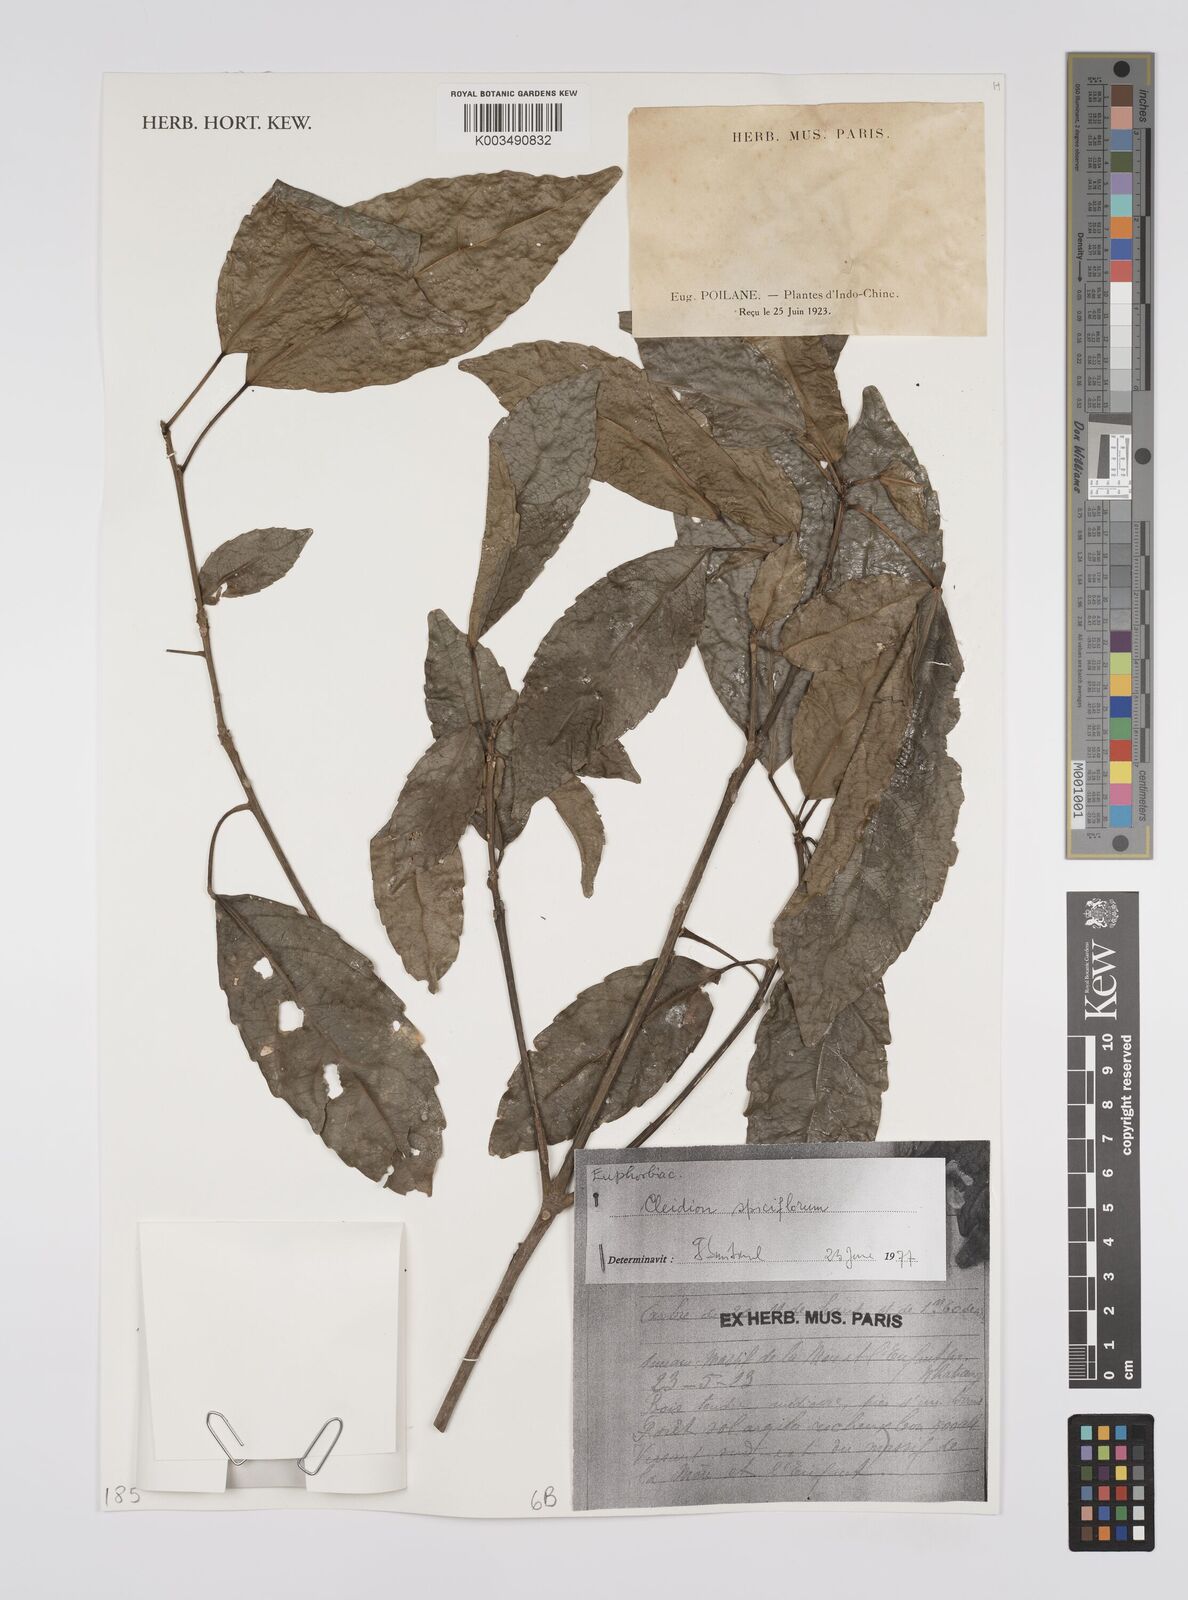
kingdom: Plantae
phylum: Tracheophyta
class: Magnoliopsida
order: Malpighiales
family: Euphorbiaceae
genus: Acalypha
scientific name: Acalypha spiciflora
